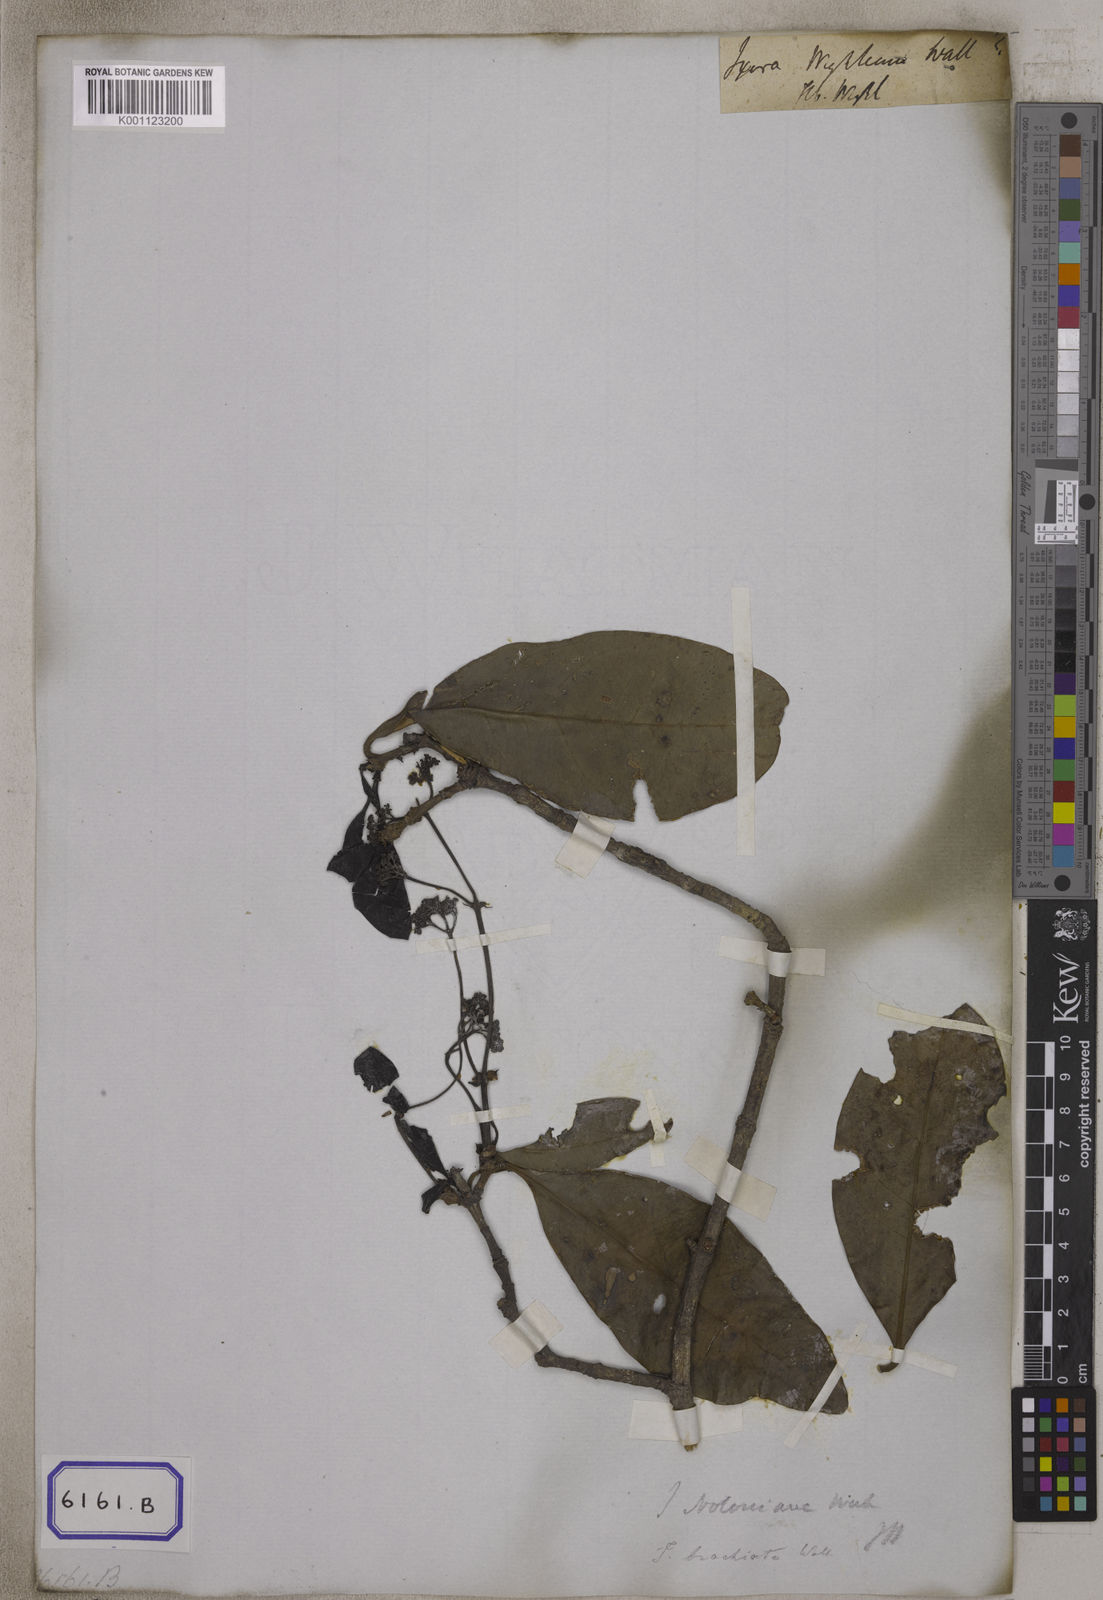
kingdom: Plantae
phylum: Tracheophyta
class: Magnoliopsida
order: Gentianales
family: Rubiaceae
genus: Ixora
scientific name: Ixora notoniana
